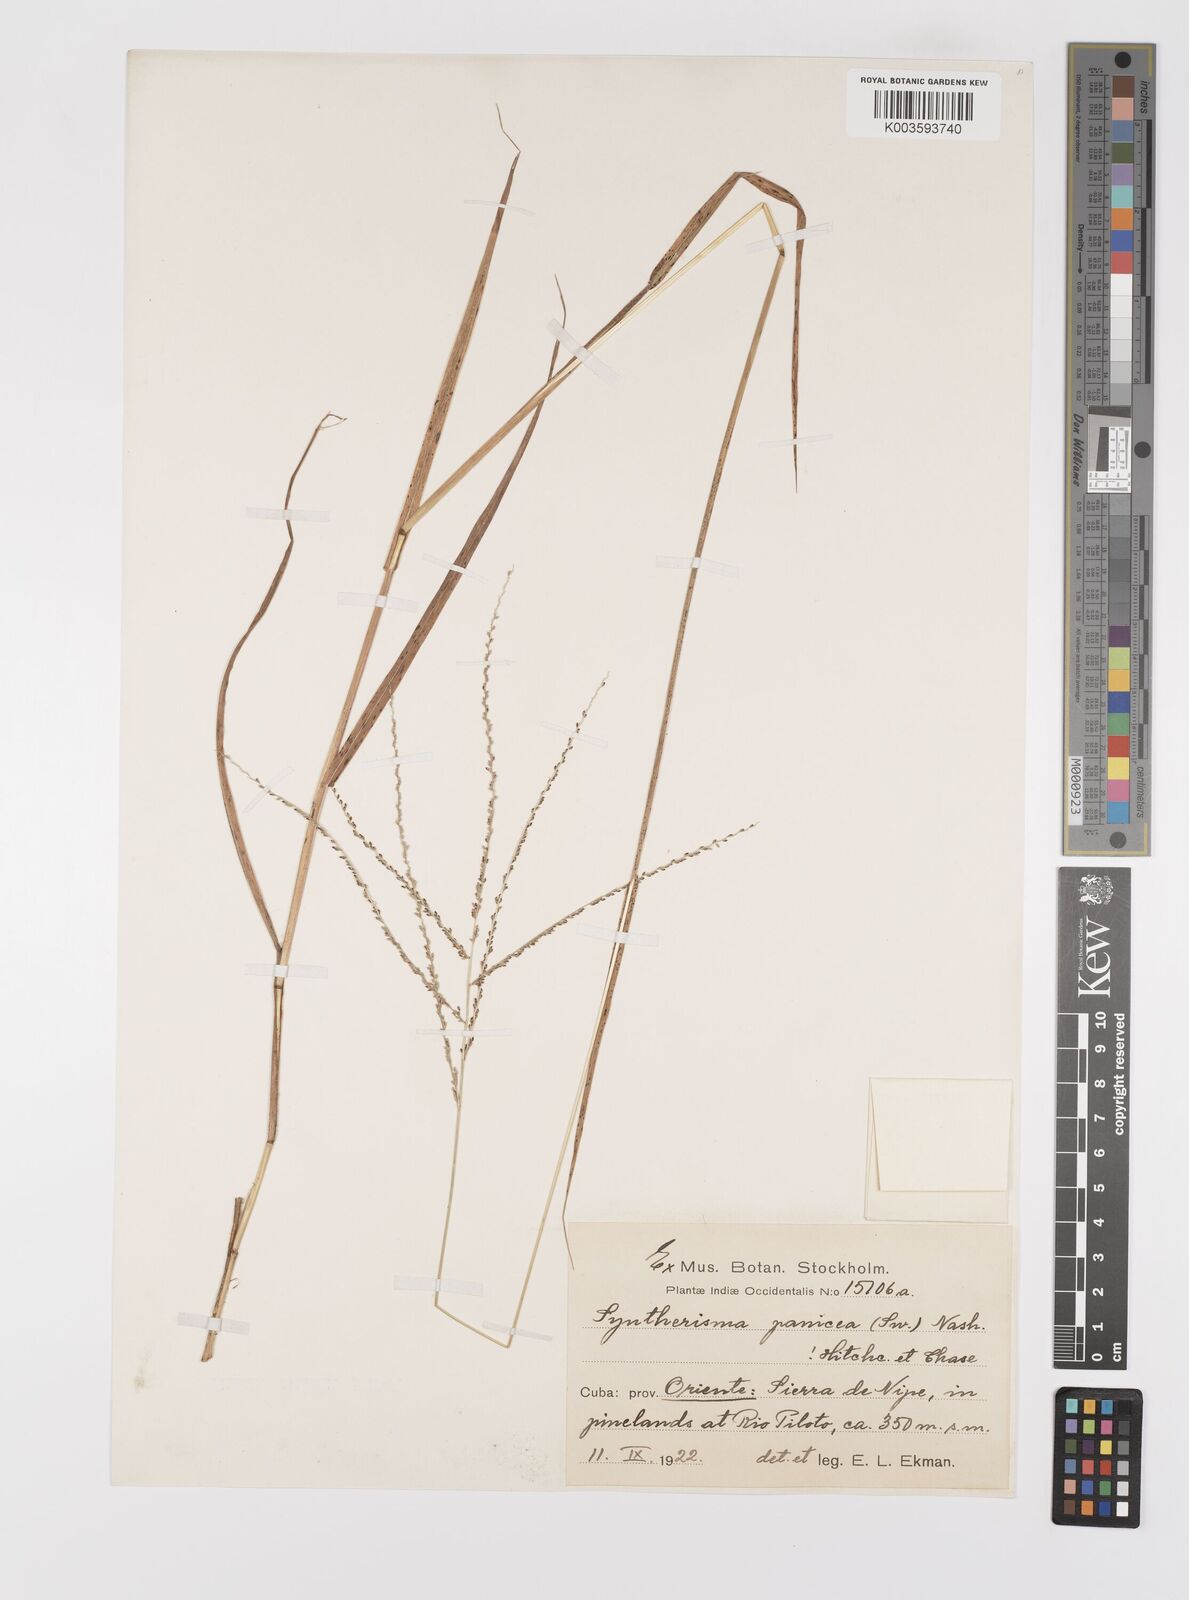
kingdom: Plantae
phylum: Tracheophyta
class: Liliopsida
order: Poales
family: Poaceae
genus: Digitaria
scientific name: Digitaria violascens
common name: Violet crabgrass
